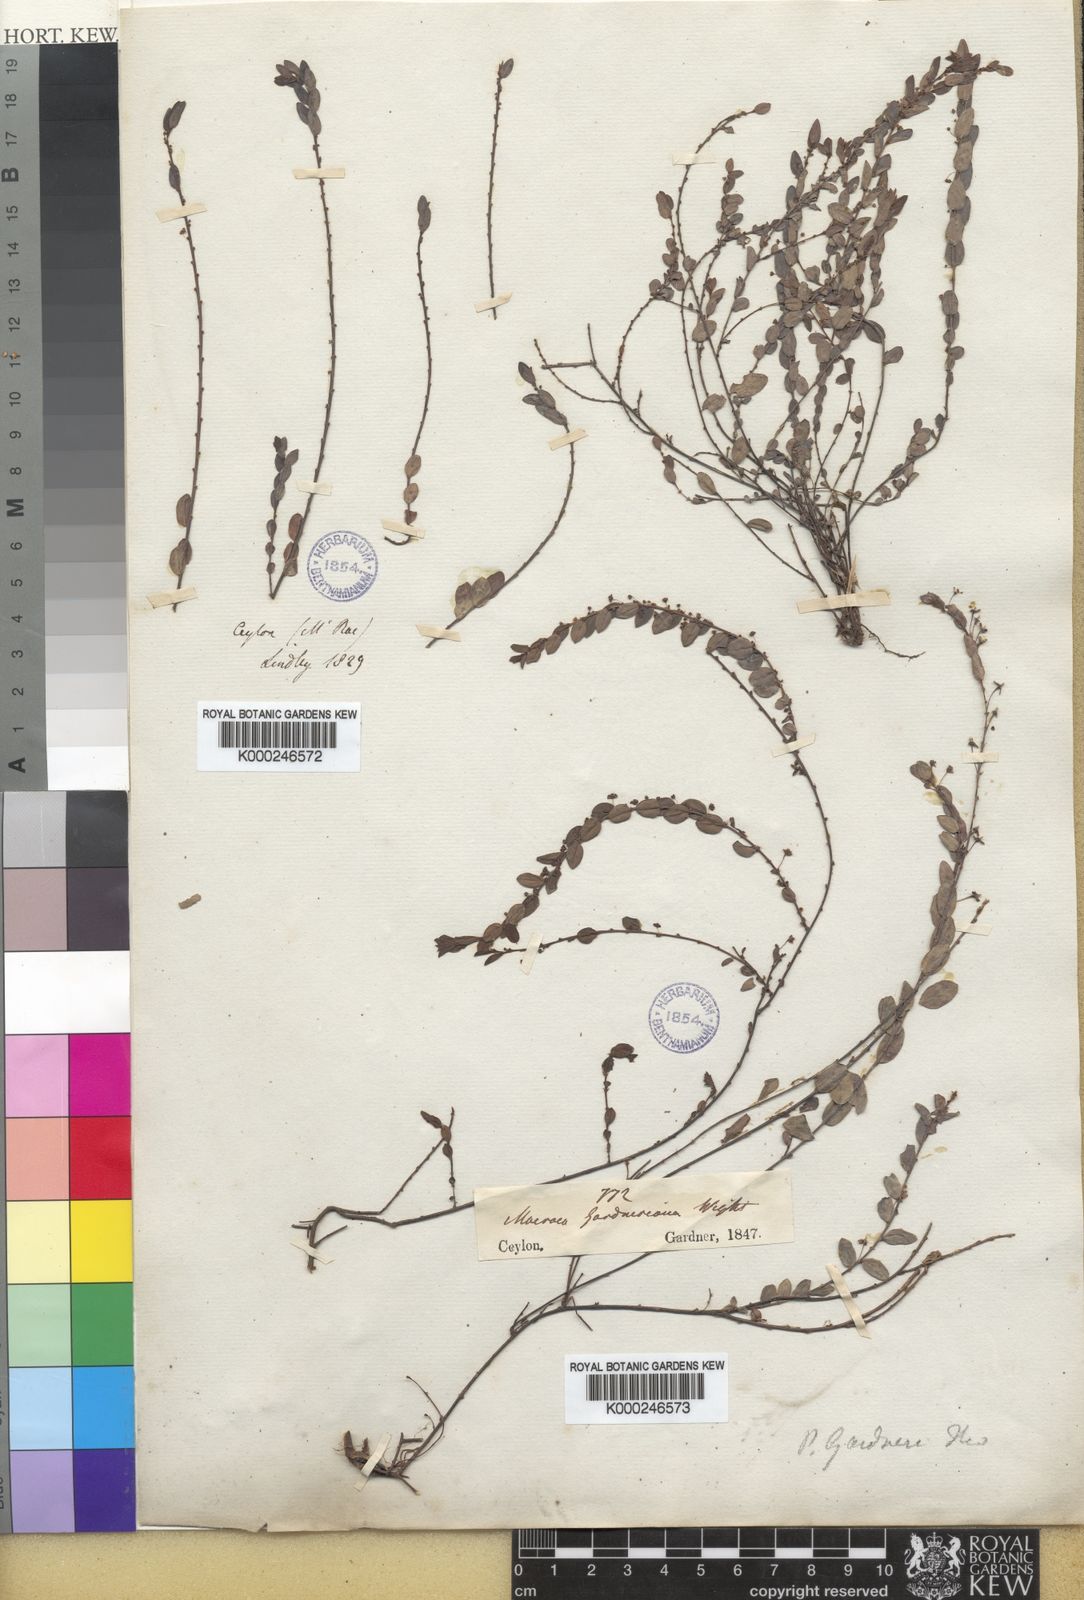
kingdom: Plantae
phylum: Tracheophyta
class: Magnoliopsida
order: Malpighiales
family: Phyllanthaceae
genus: Phyllanthus
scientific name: Phyllanthus gardnerianus
